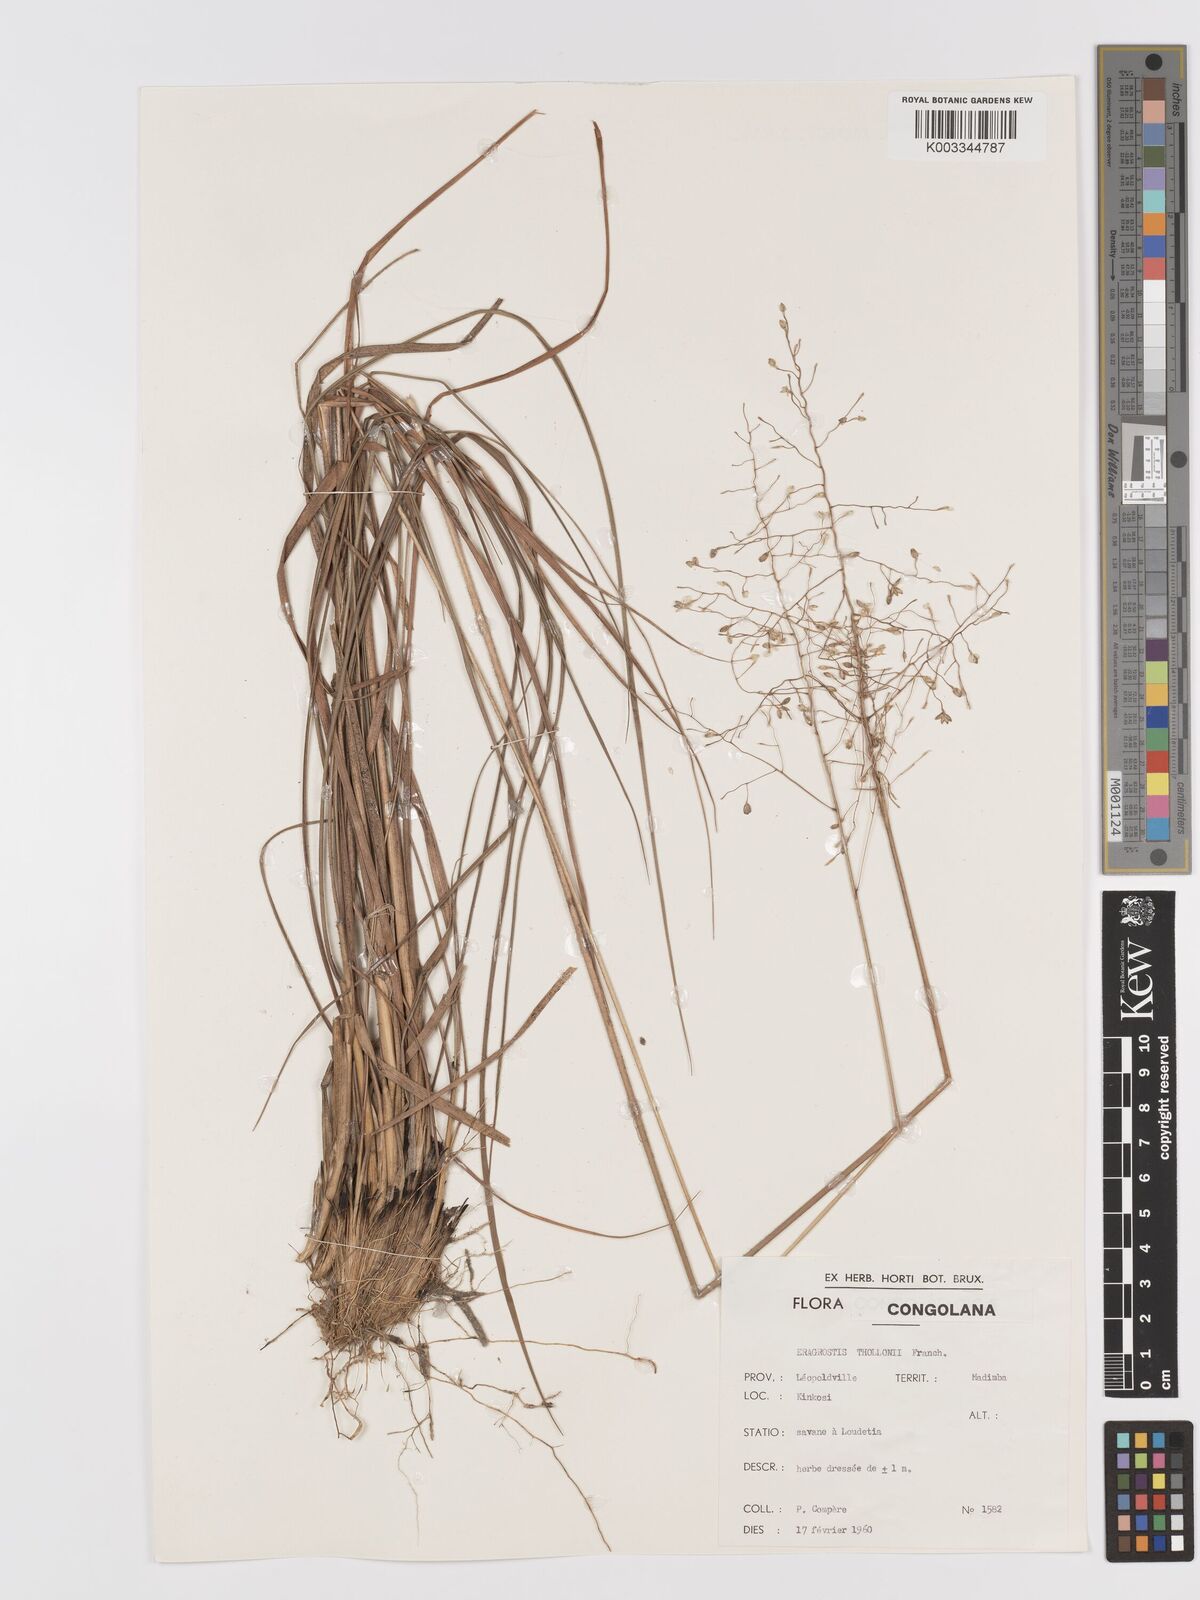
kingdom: Plantae
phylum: Tracheophyta
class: Liliopsida
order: Poales
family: Poaceae
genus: Eragrostis
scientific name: Eragrostis thollonii
